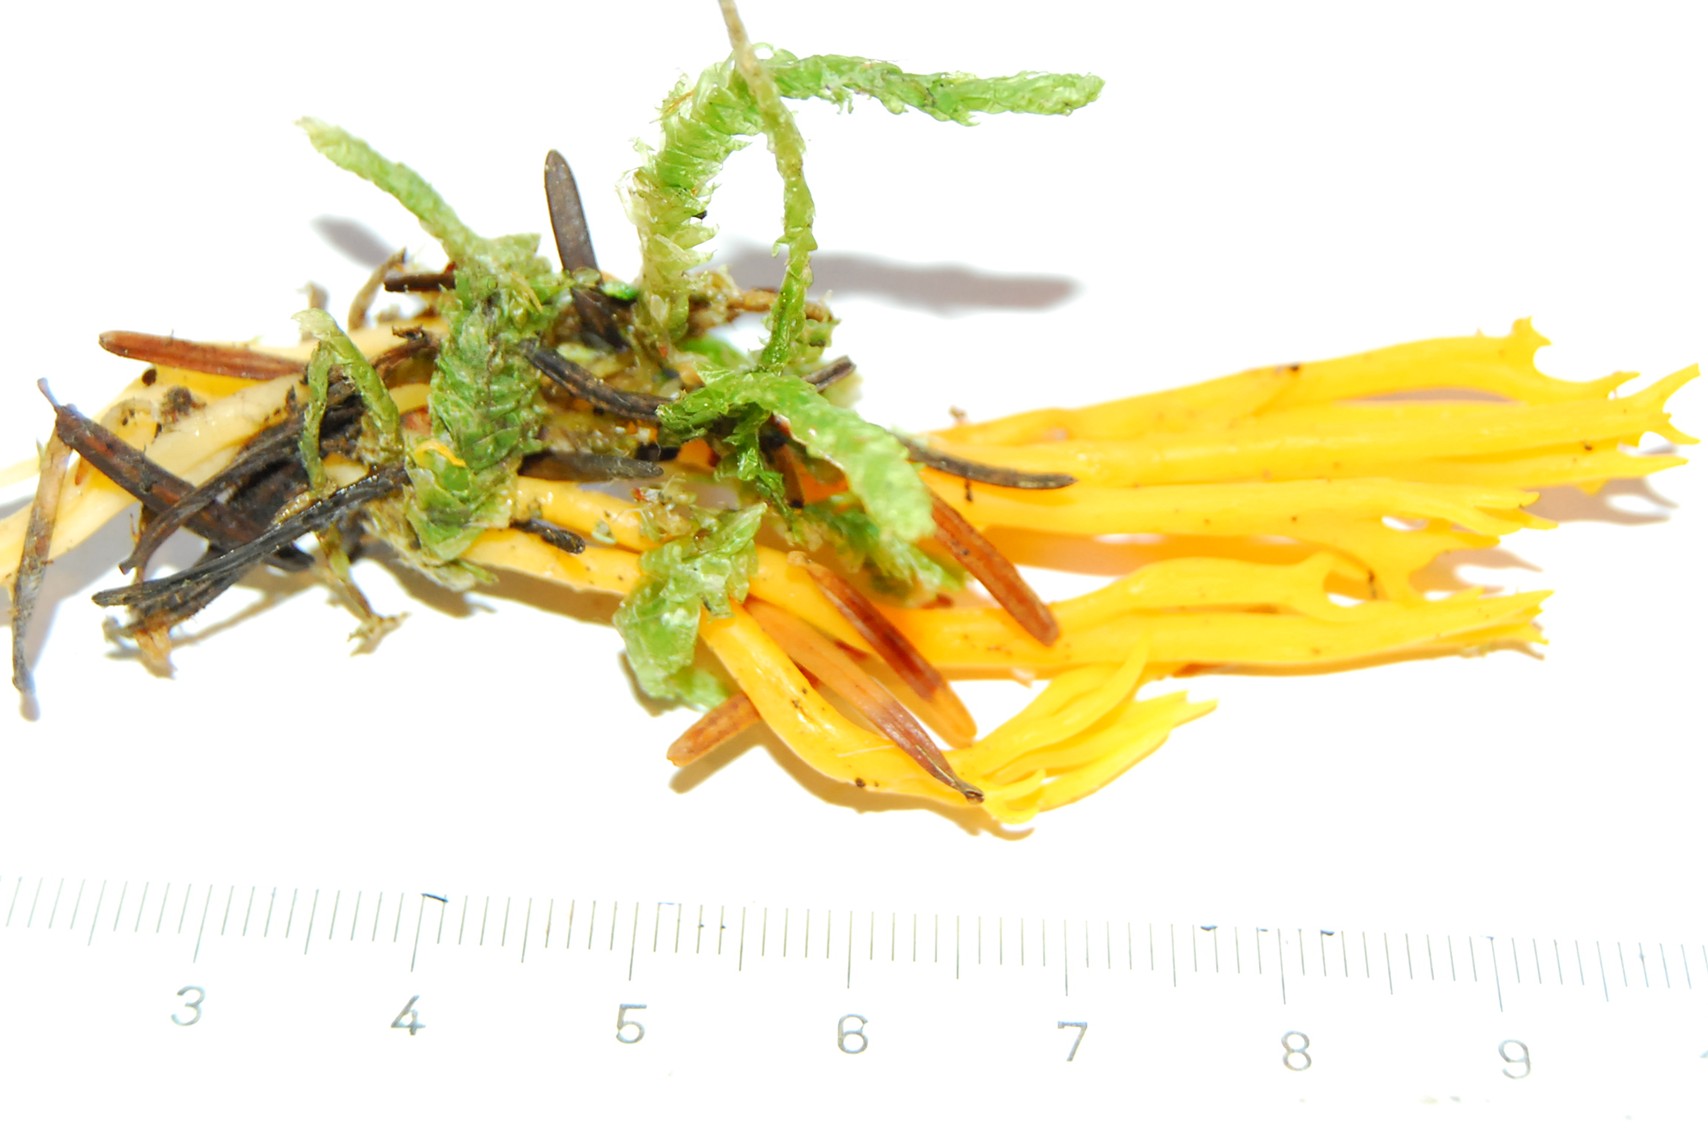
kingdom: Fungi
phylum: Basidiomycota
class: Dacrymycetes
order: Dacrymycetales
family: Dacrymycetaceae
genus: Calocera
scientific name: Calocera viscosa
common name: almindelig guldgaffel
